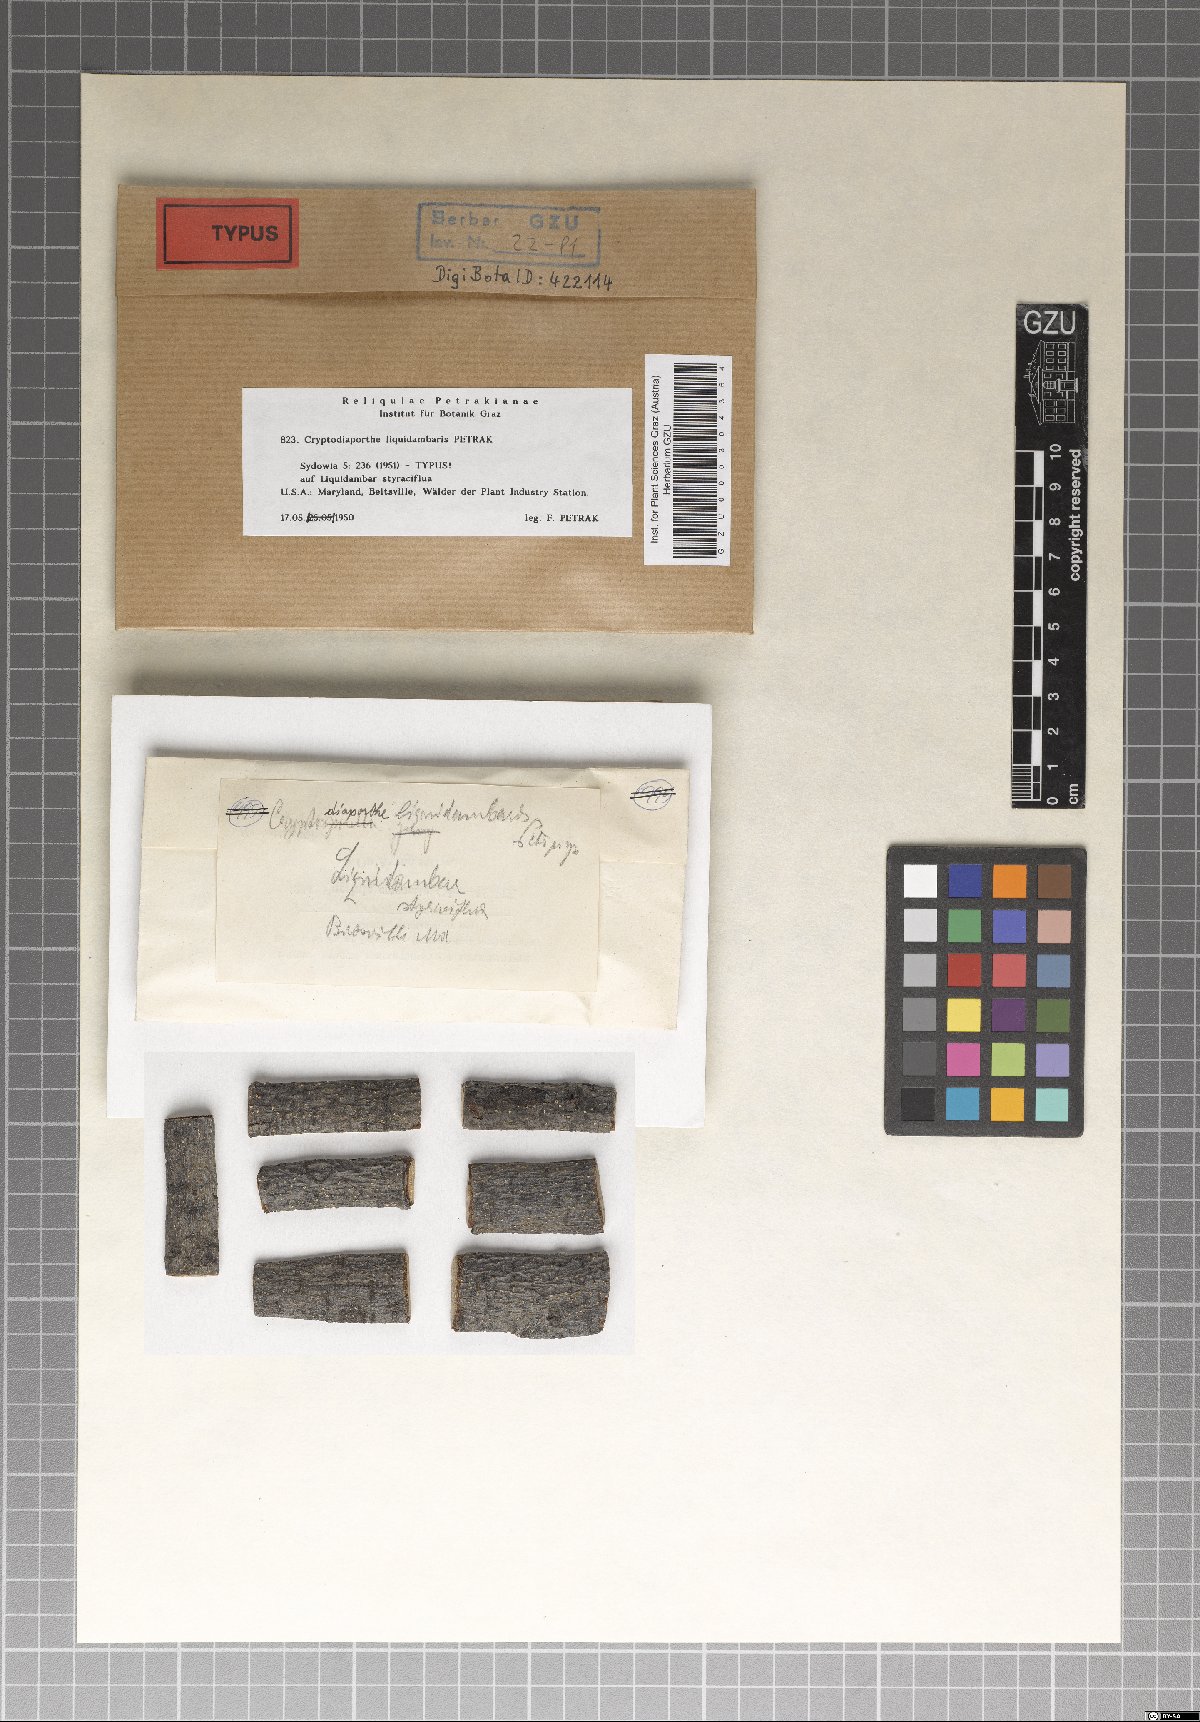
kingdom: Fungi
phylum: Ascomycota
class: Sordariomycetes
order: Diaporthales
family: Gnomoniaceae
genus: Cryptodiaporthe
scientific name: Cryptodiaporthe liquidambaris
